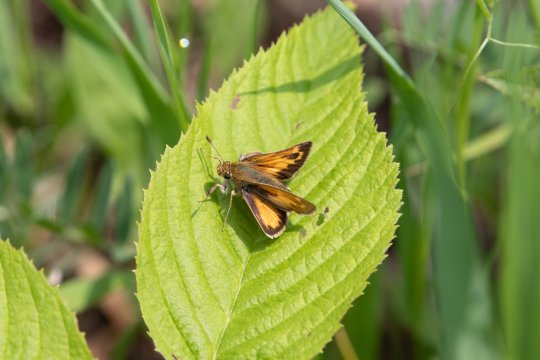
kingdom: Animalia
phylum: Arthropoda
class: Insecta
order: Lepidoptera
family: Hesperiidae
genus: Lon
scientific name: Lon hobomok
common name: Hobomok Skipper
